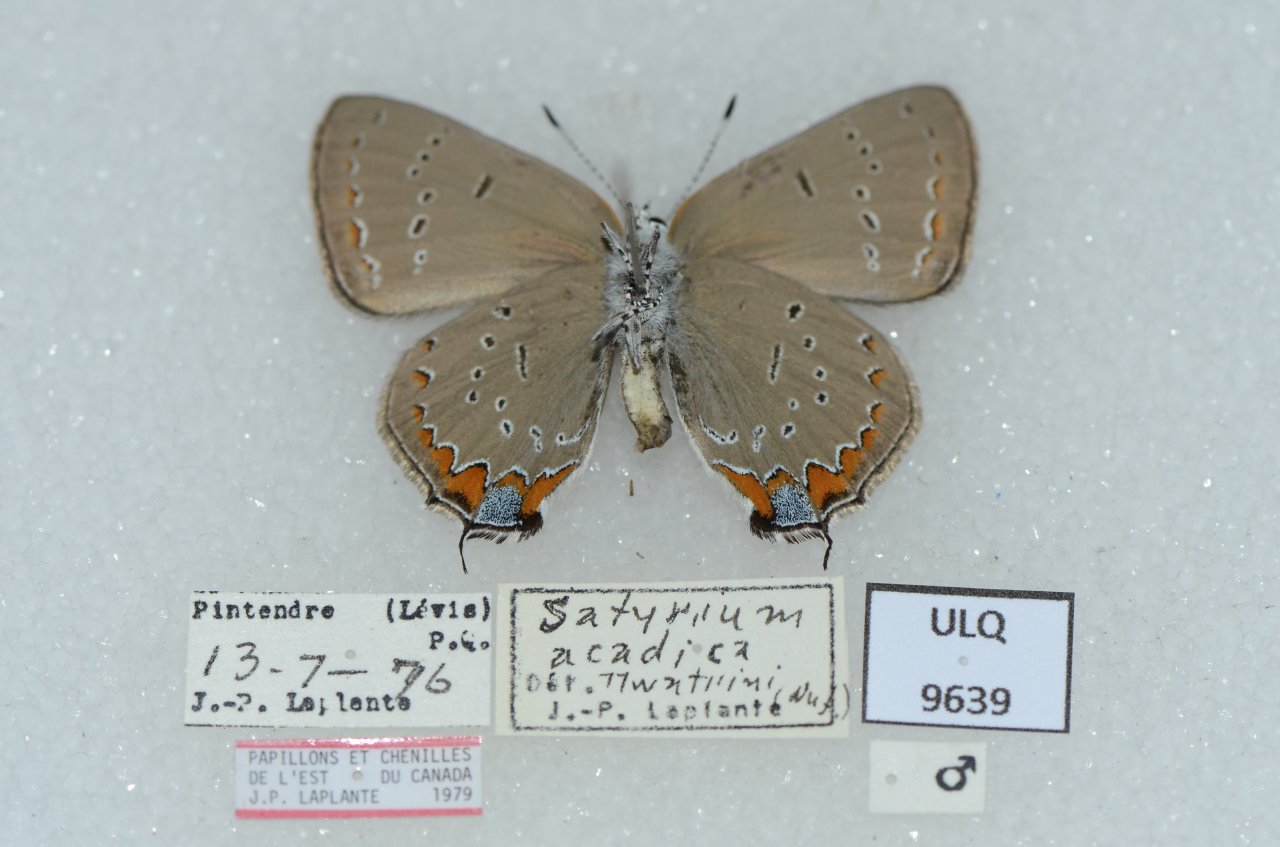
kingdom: Animalia
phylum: Arthropoda
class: Insecta
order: Lepidoptera
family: Lycaenidae
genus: Strymon
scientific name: Strymon acadica
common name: Acadian Hairstreak
